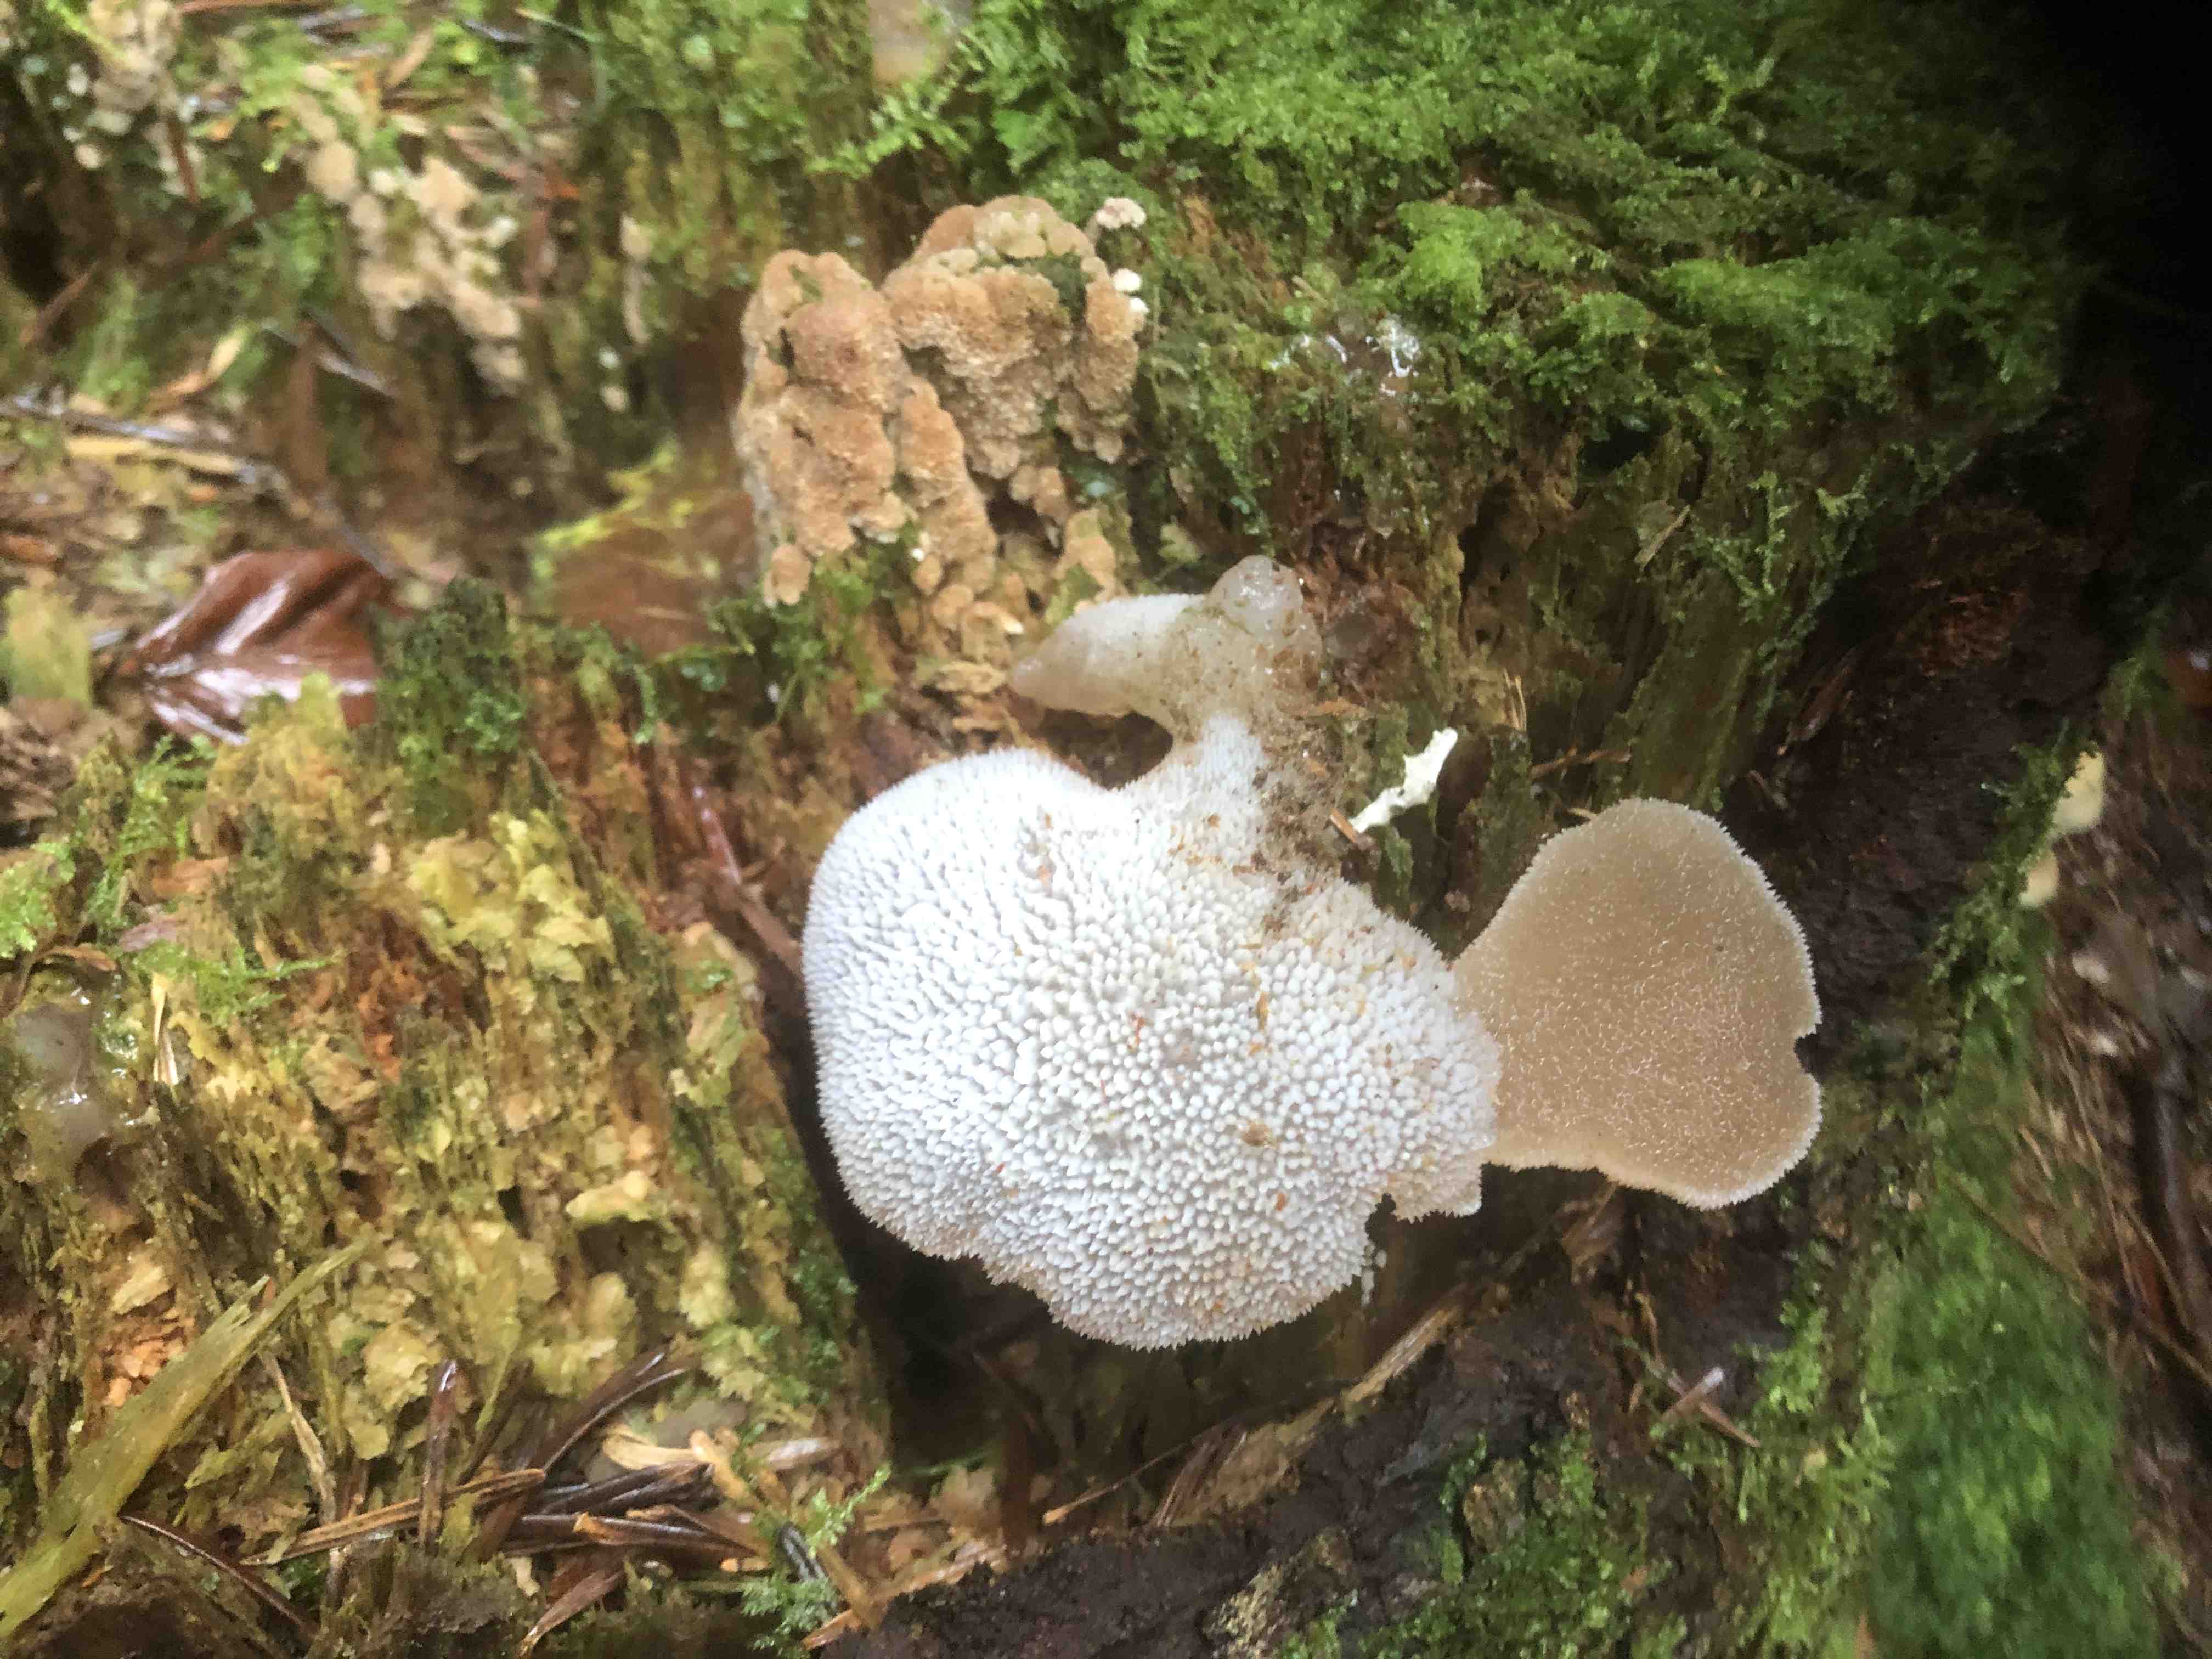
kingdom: Fungi
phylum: Basidiomycota
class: Agaricomycetes
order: Auriculariales
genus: Pseudohydnum
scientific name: Pseudohydnum gelatinosum
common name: bævretand
